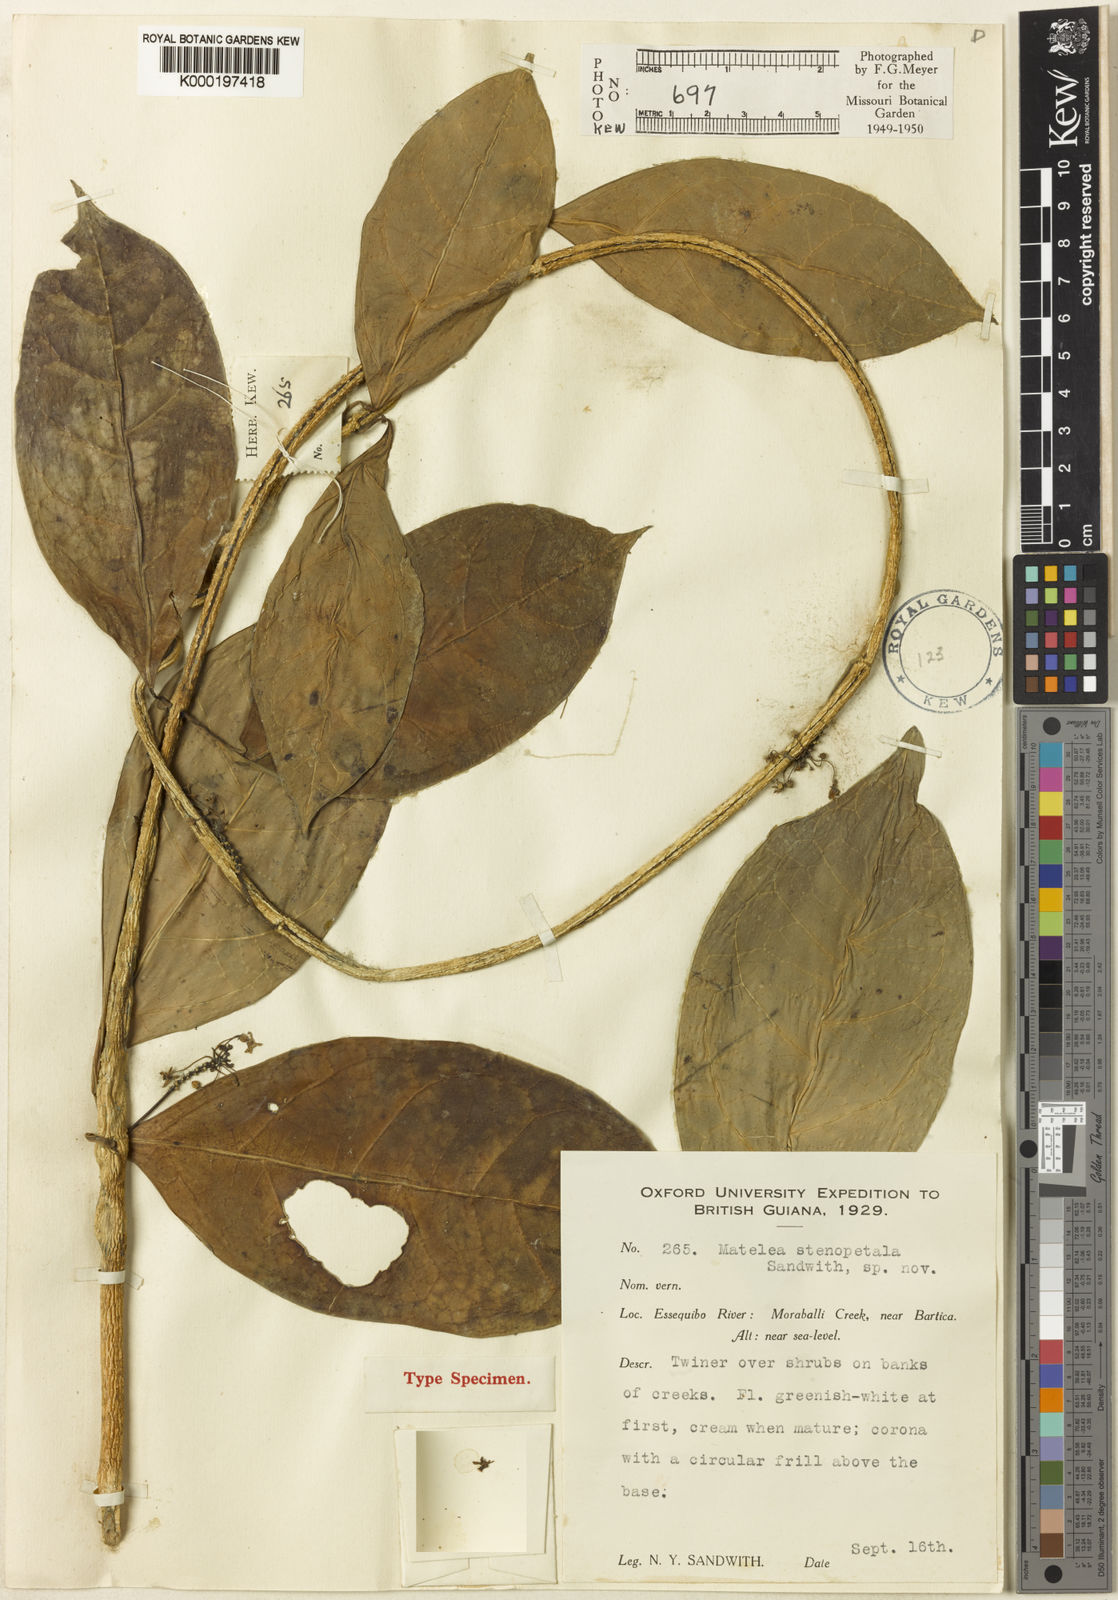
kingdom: Plantae
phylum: Tracheophyta
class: Magnoliopsida
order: Gentianales
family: Apocynaceae
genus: Matelea
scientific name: Matelea stenopetala
